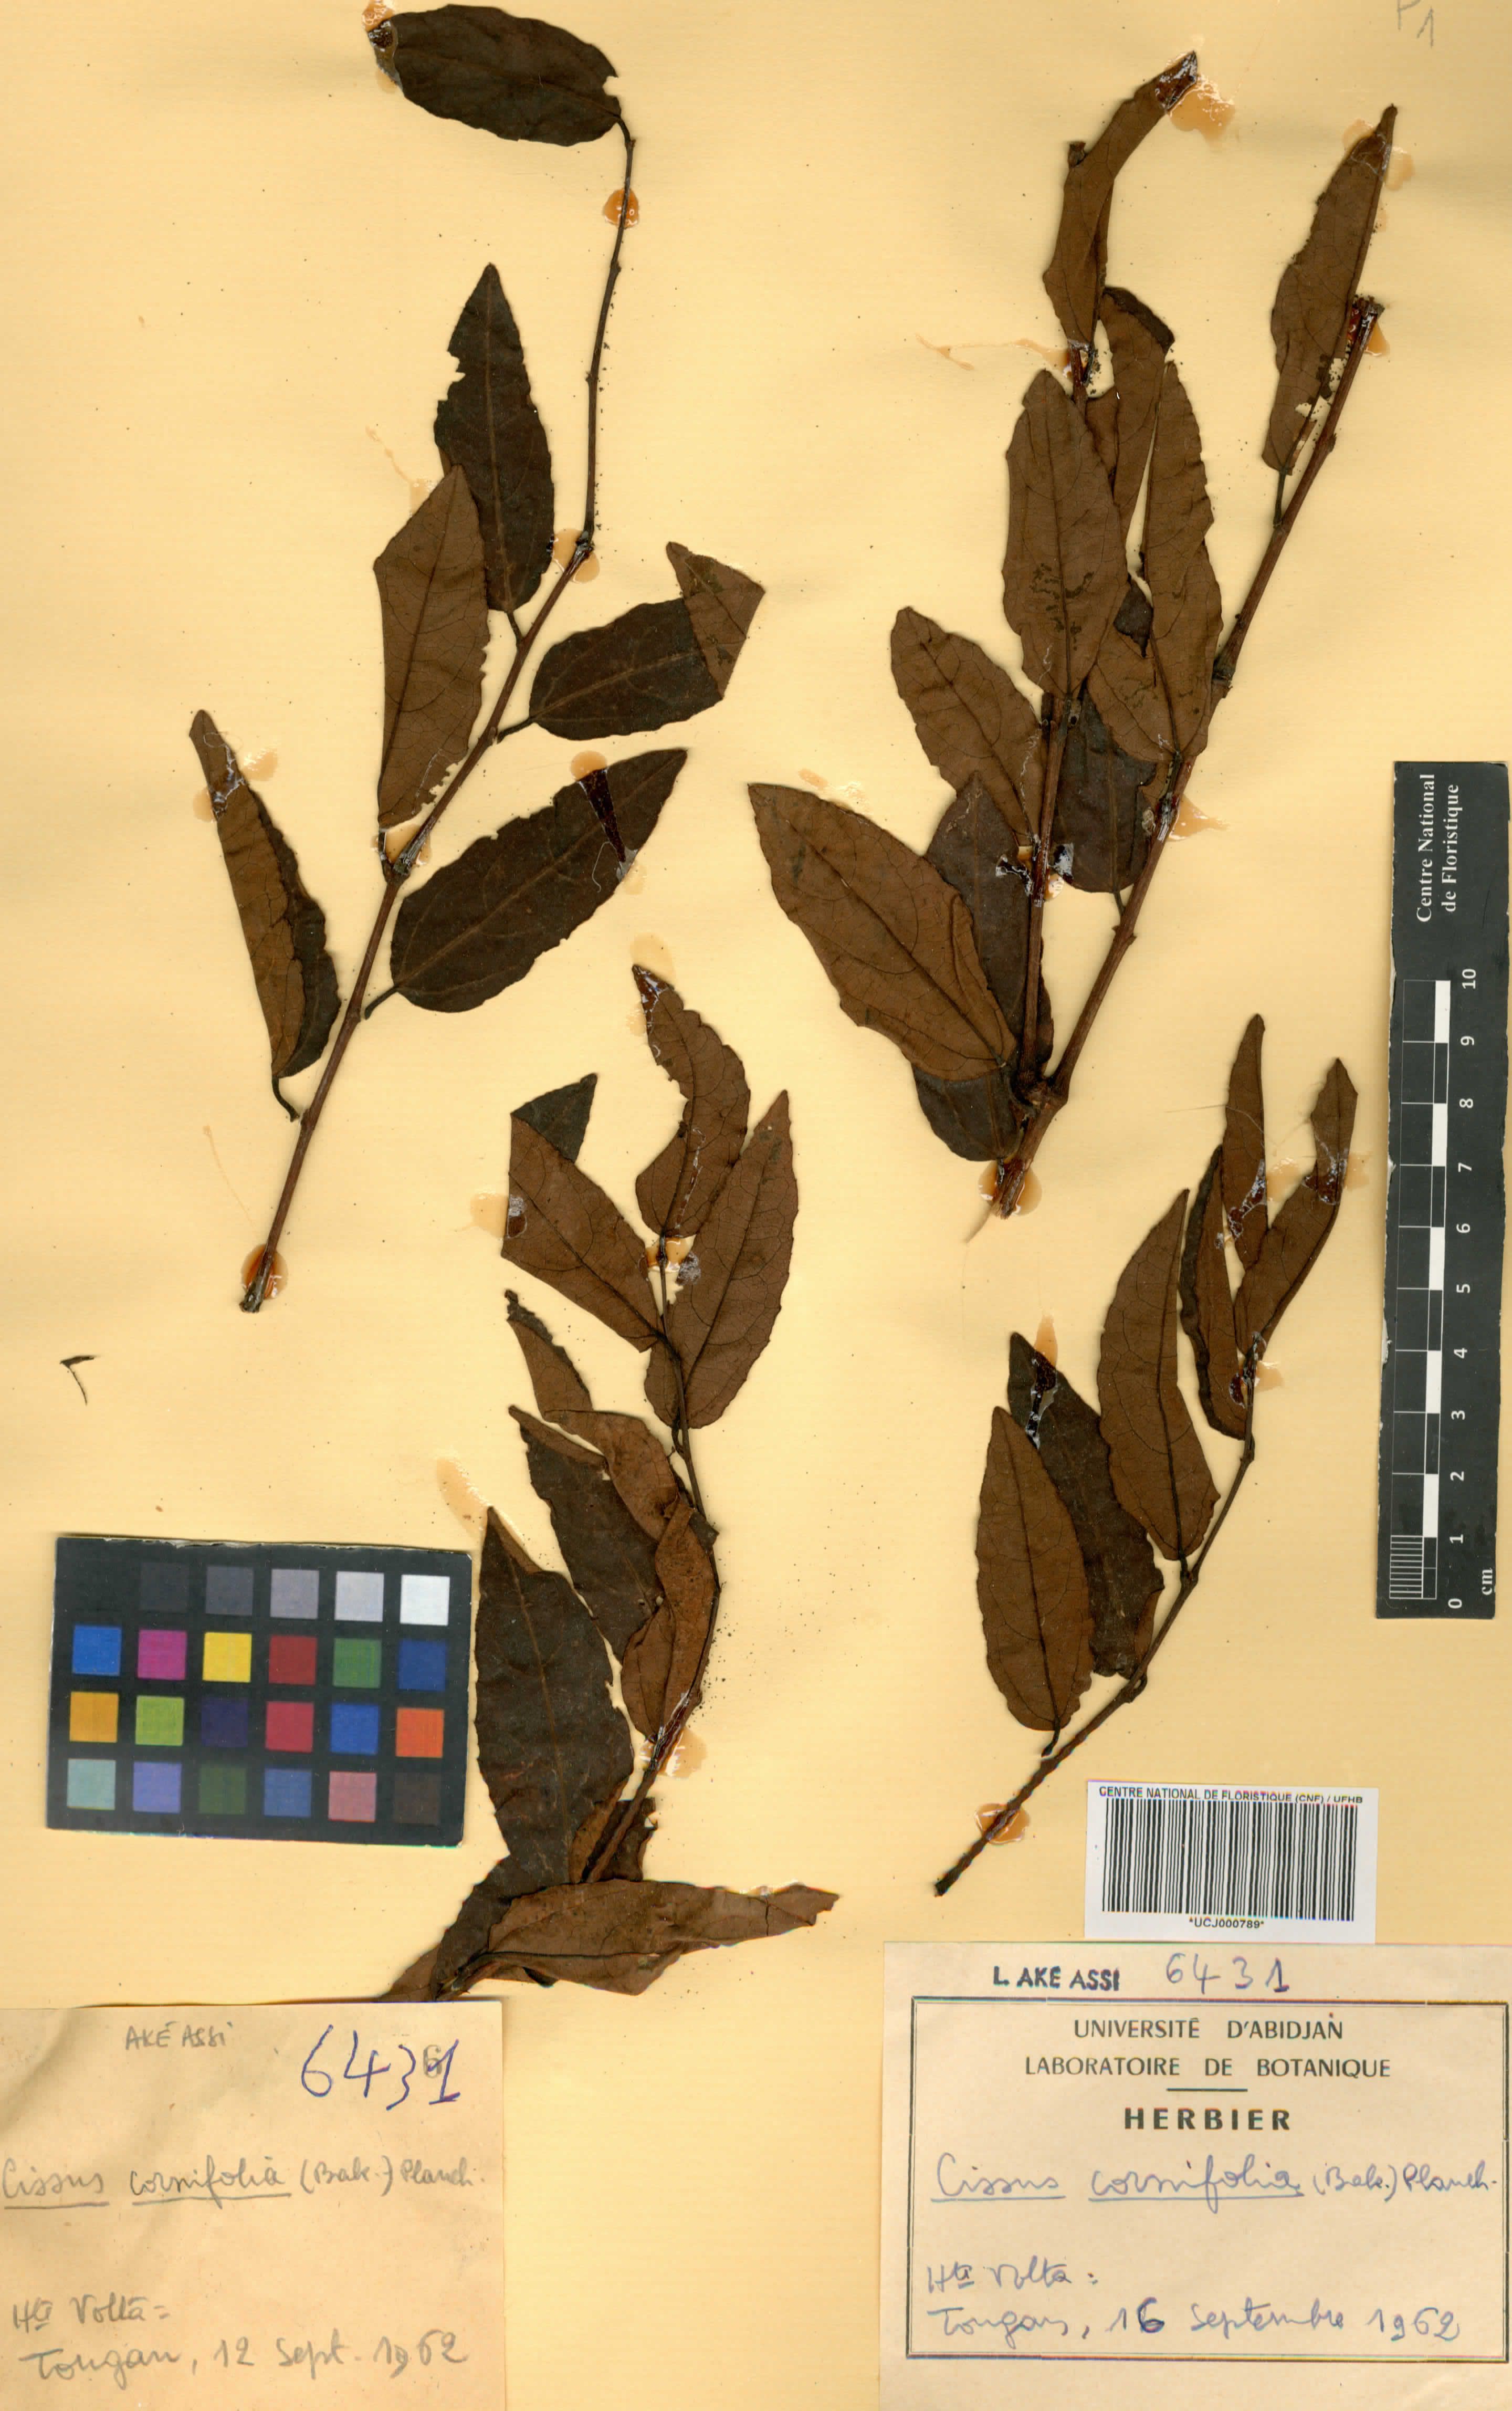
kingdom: Plantae
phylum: Tracheophyta
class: Magnoliopsida
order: Vitales
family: Vitaceae
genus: Cissus
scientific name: Cissus cornifolia
